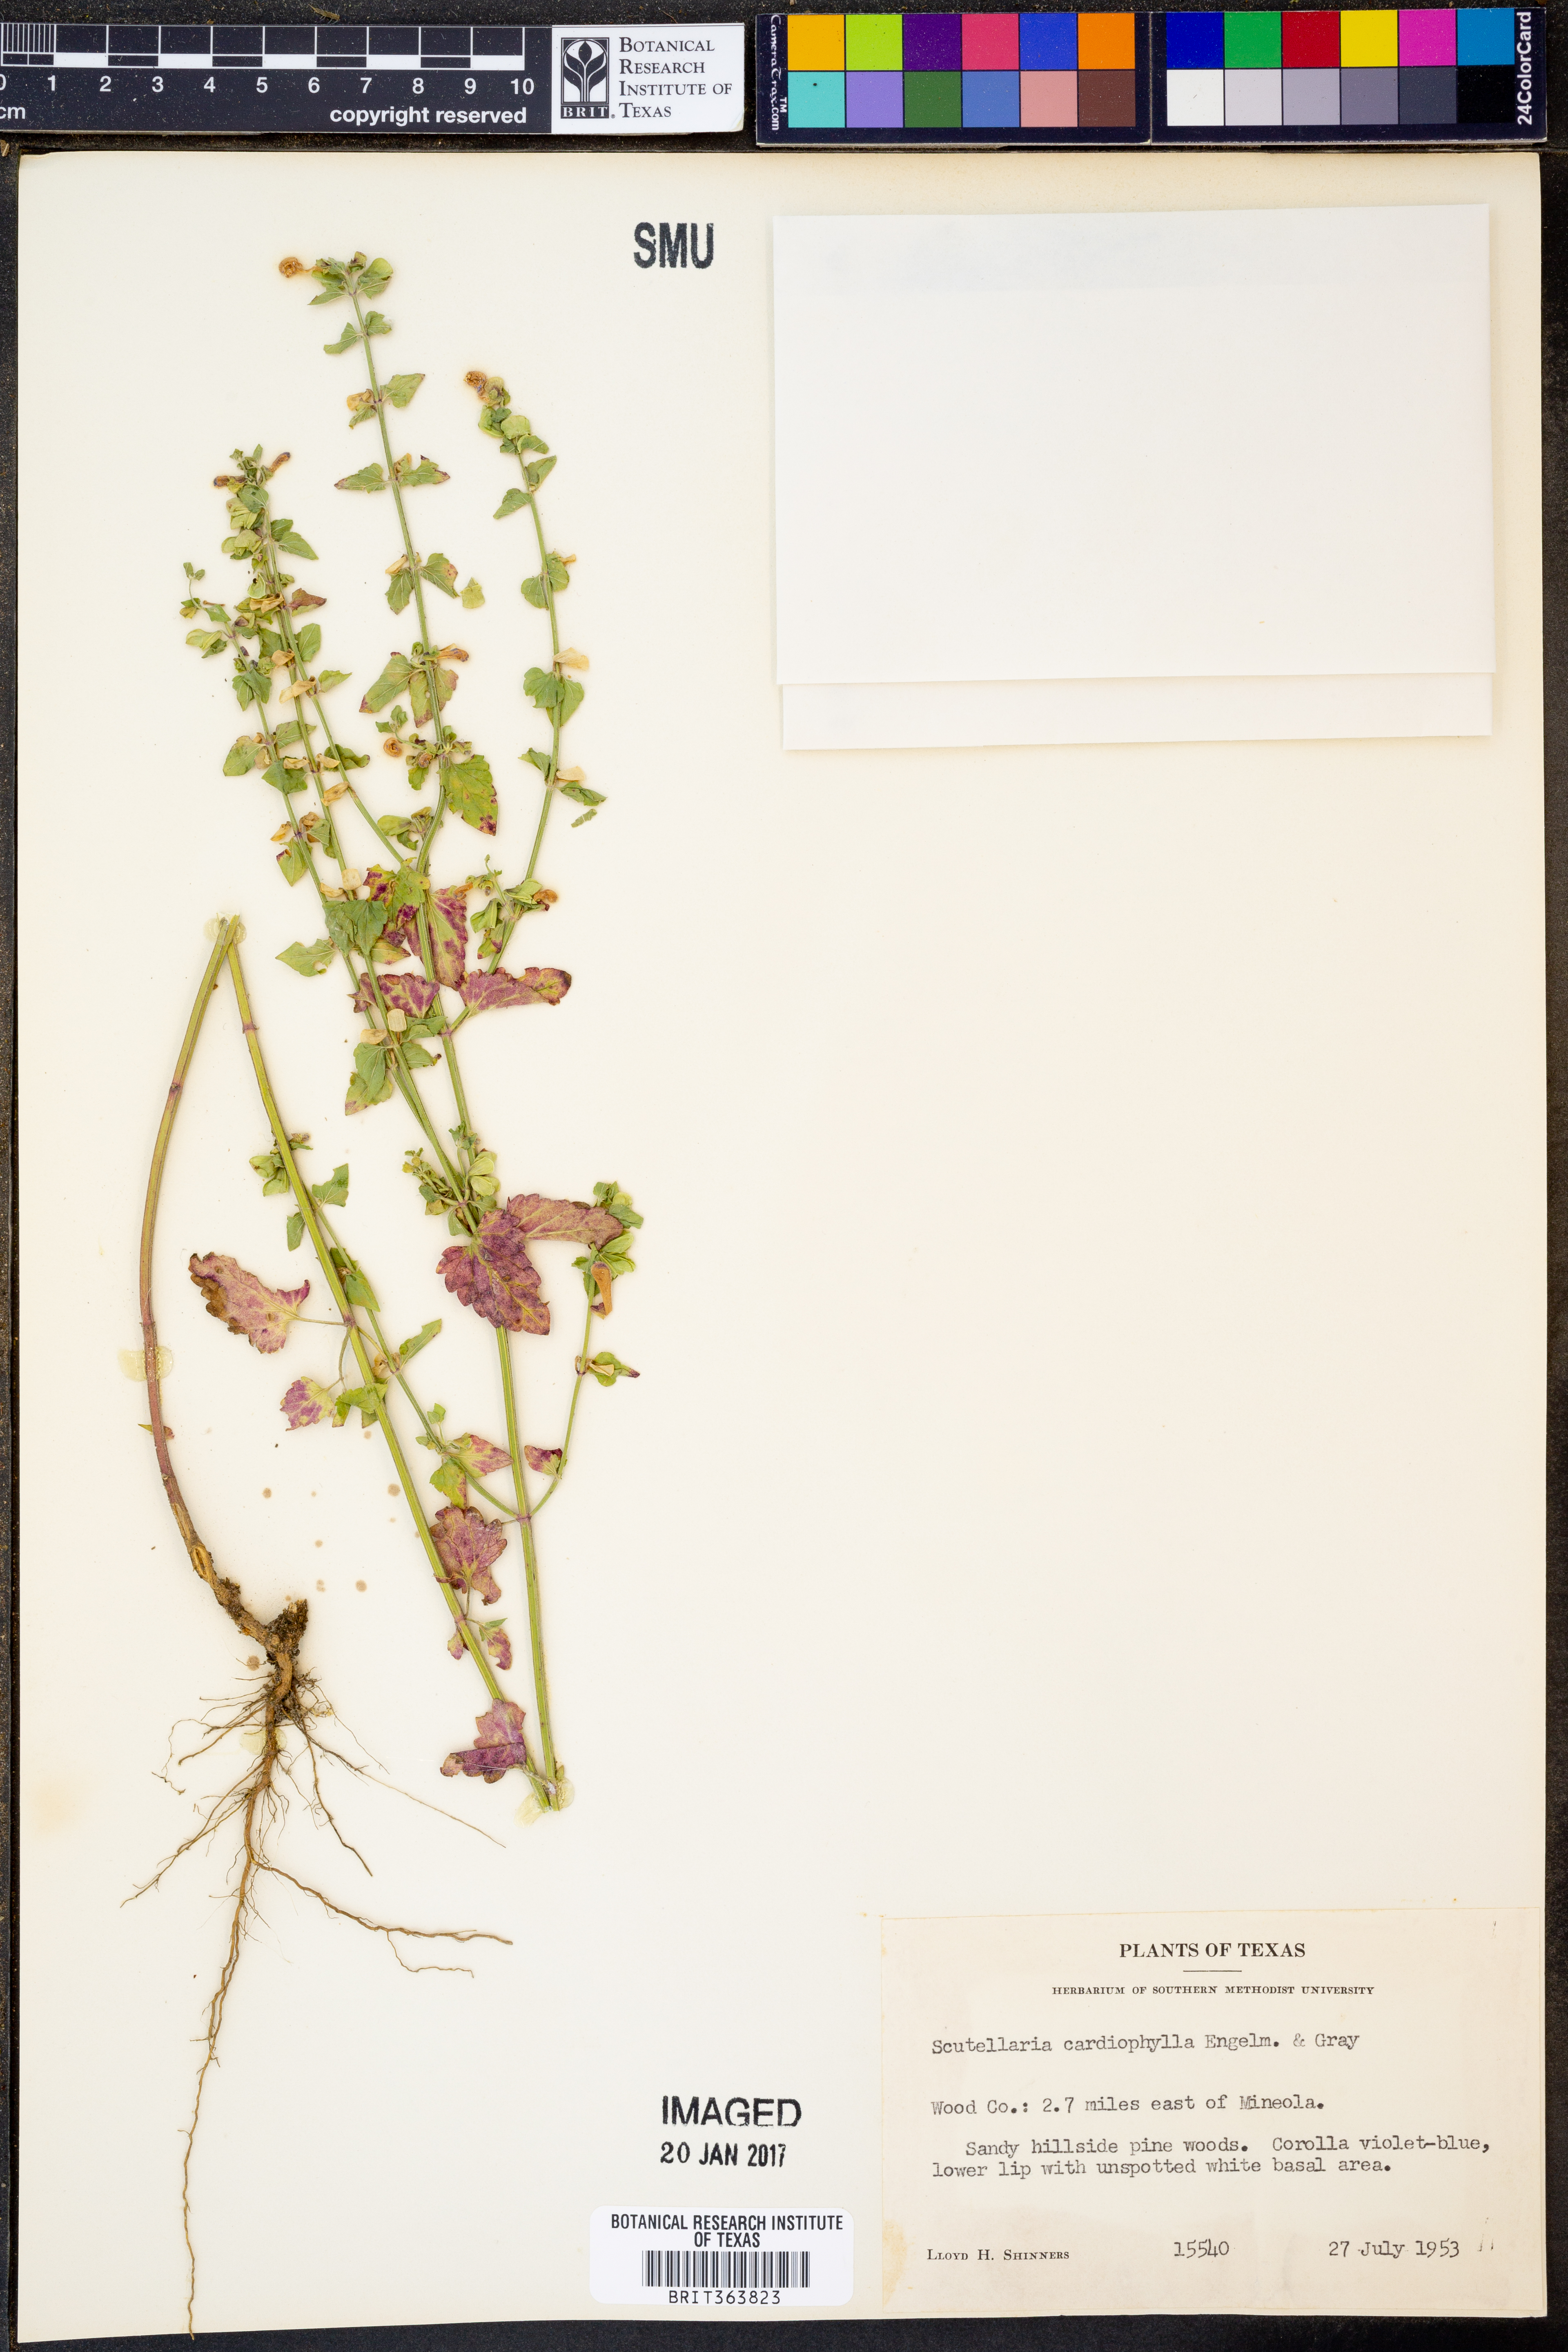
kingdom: Plantae
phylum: Tracheophyta
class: Magnoliopsida
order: Lamiales
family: Lamiaceae
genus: Scutellaria
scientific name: Scutellaria cardiophylla
